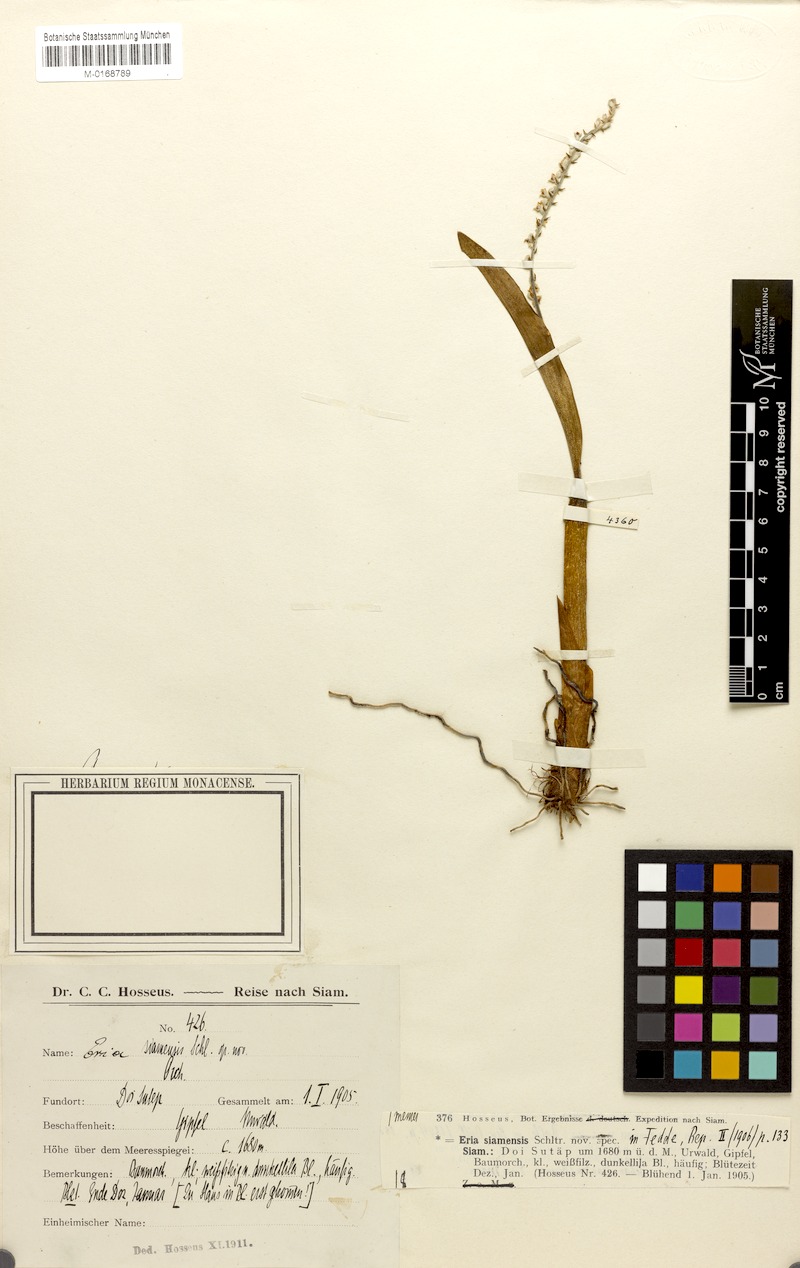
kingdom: Plantae
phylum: Tracheophyta
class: Liliopsida
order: Asparagales
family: Orchidaceae
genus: Cryptochilus
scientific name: Cryptochilus siamensis
